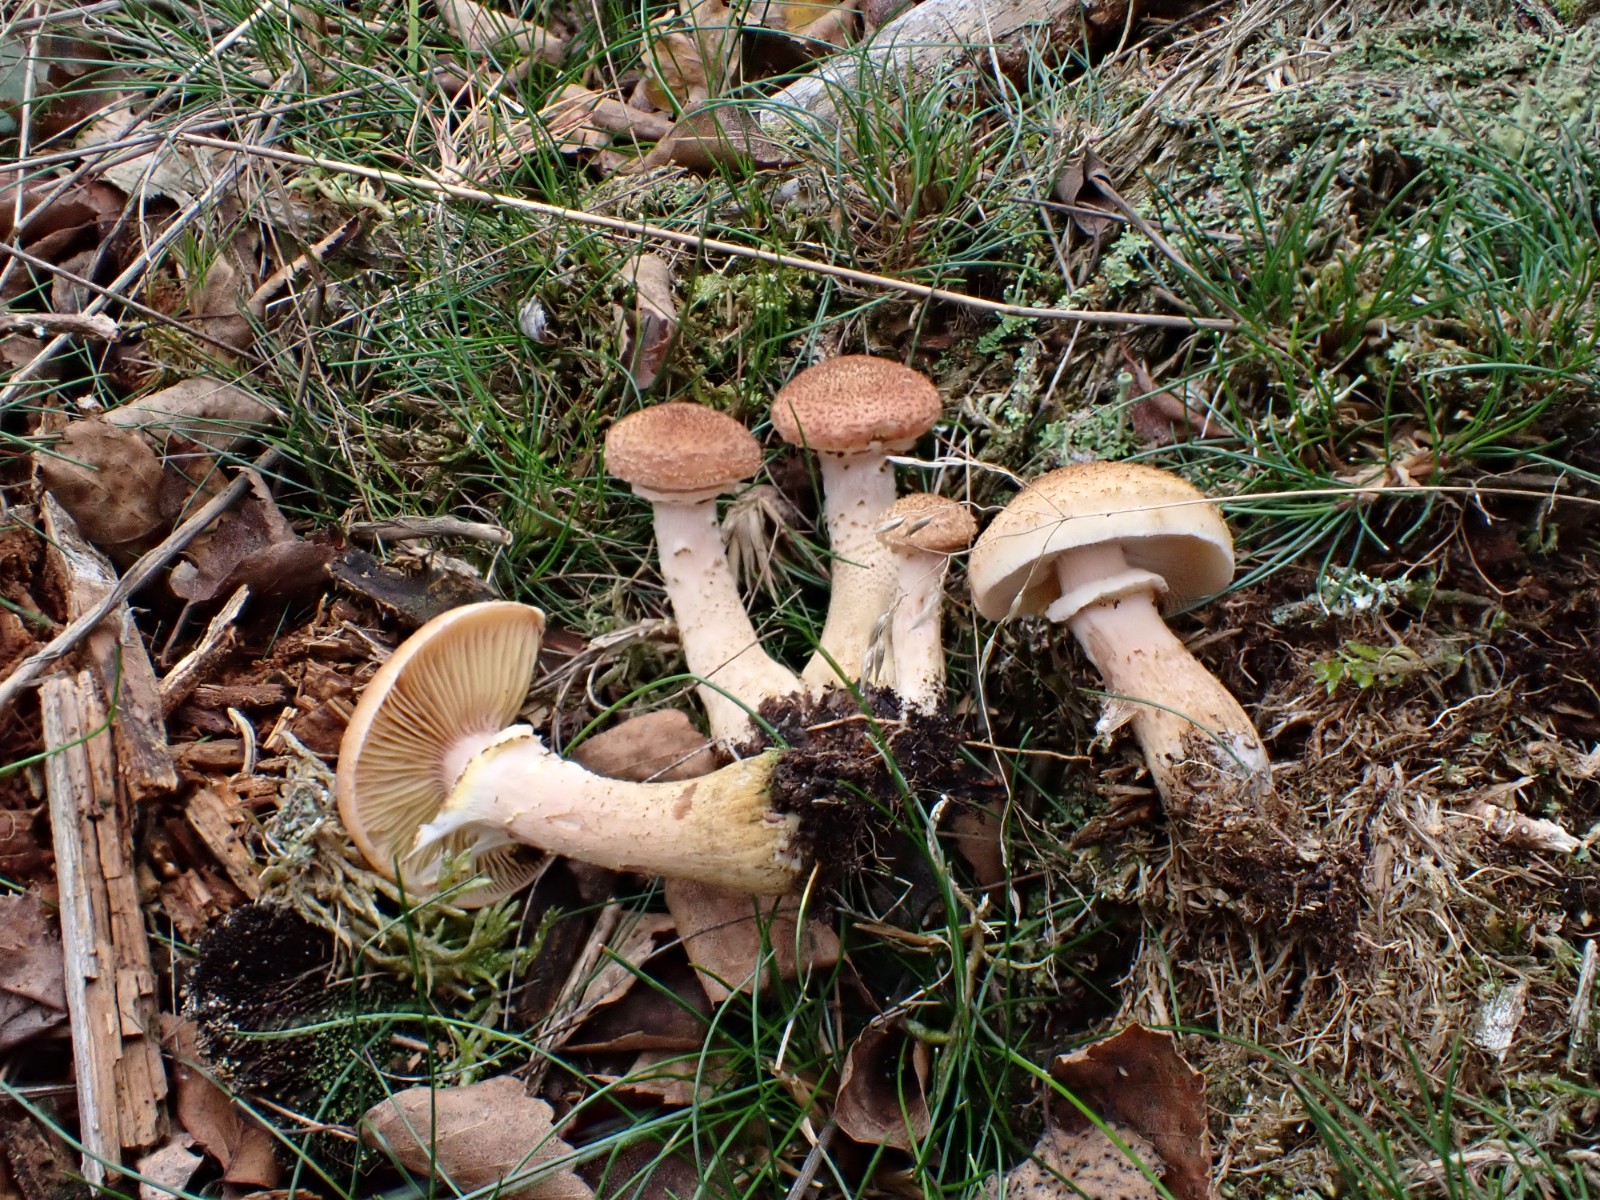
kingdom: Fungi
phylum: Basidiomycota
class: Agaricomycetes
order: Agaricales
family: Physalacriaceae
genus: Armillaria
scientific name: Armillaria lutea
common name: køllestokket honningsvamp
